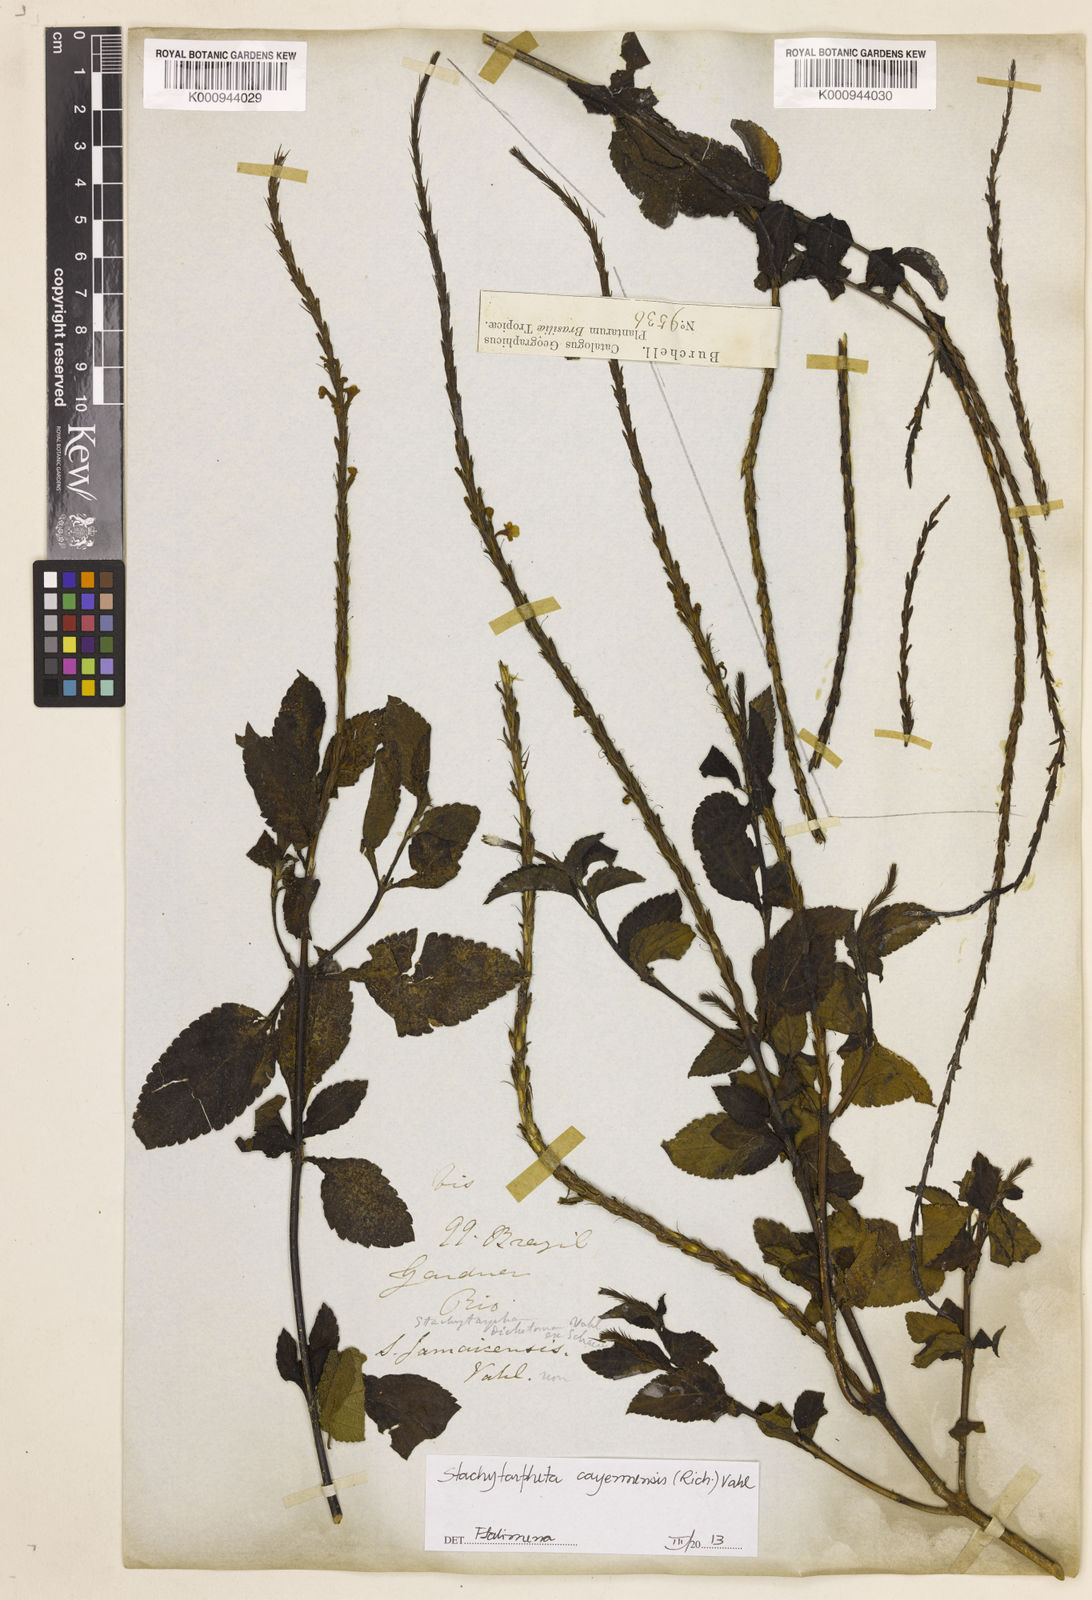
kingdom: Plantae
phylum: Tracheophyta
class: Magnoliopsida
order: Lamiales
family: Verbenaceae
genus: Aloysia
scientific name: Aloysia
